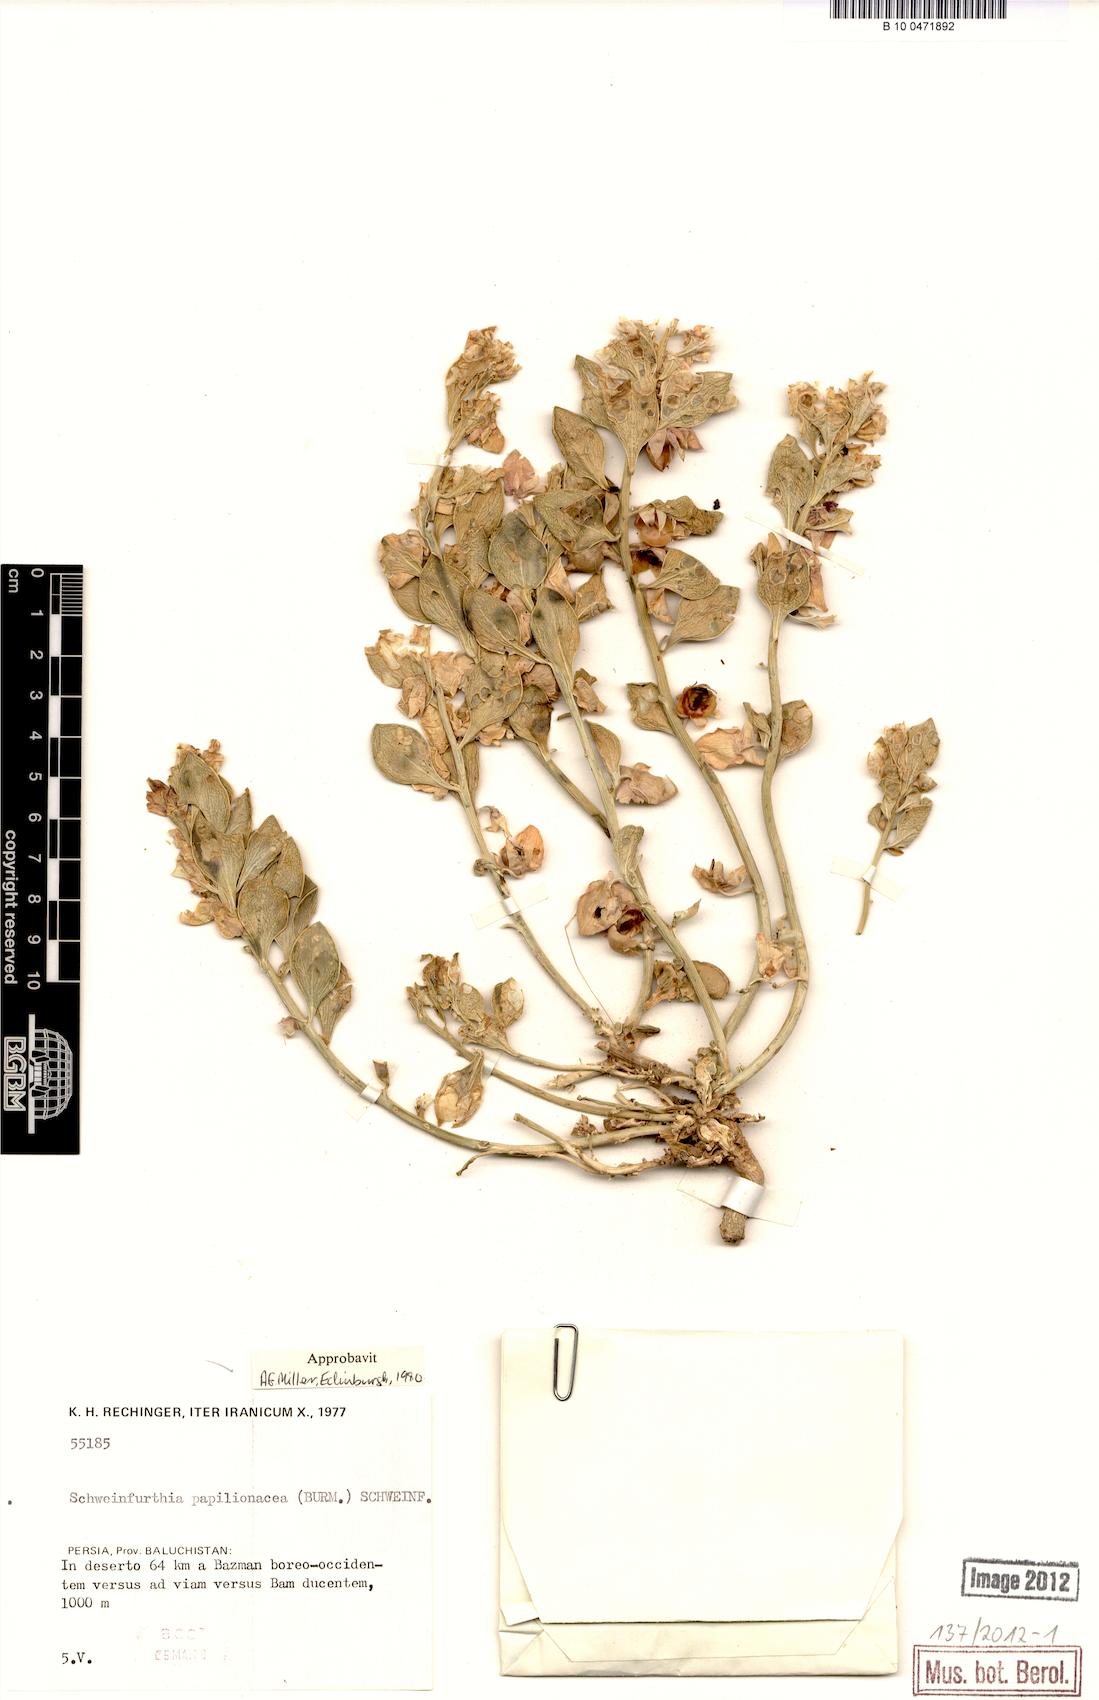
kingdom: Plantae
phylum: Tracheophyta
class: Magnoliopsida
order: Lamiales
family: Plantaginaceae
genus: Schweinfurthia
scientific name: Schweinfurthia papilionacea
